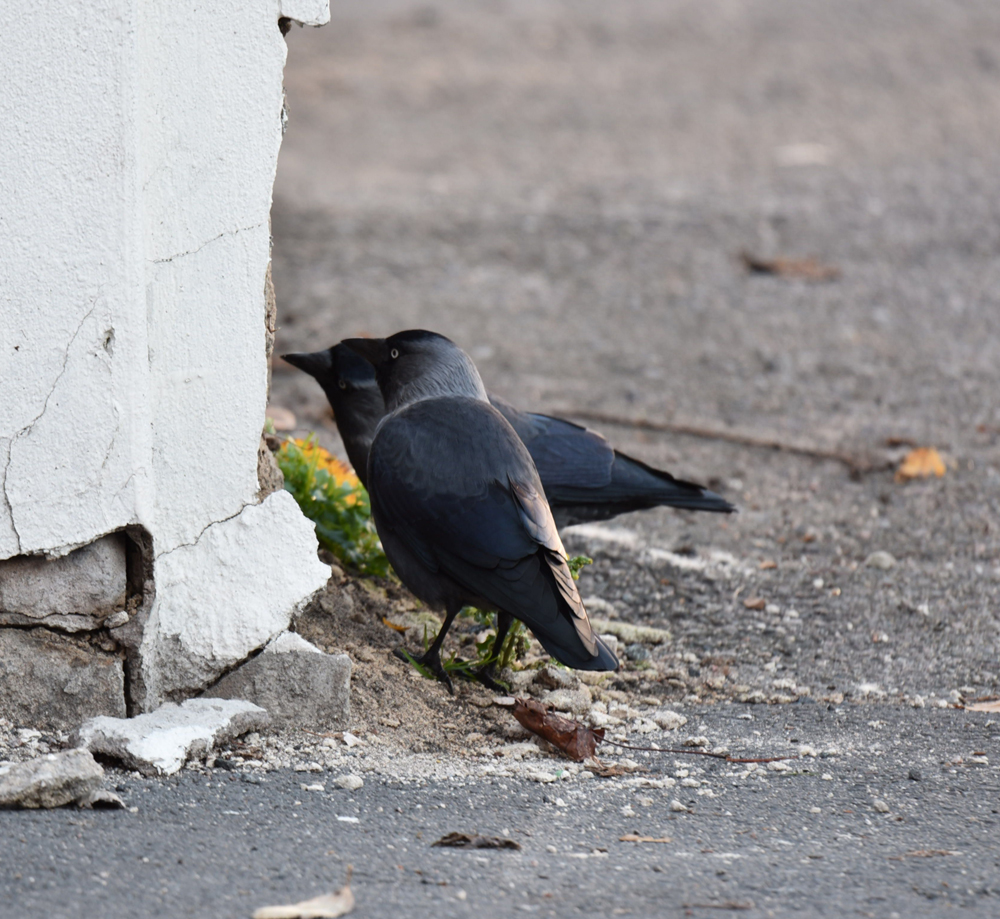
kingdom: Animalia
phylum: Chordata
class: Aves
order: Passeriformes
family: Corvidae
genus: Coloeus
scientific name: Coloeus monedula
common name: Western jackdaw
